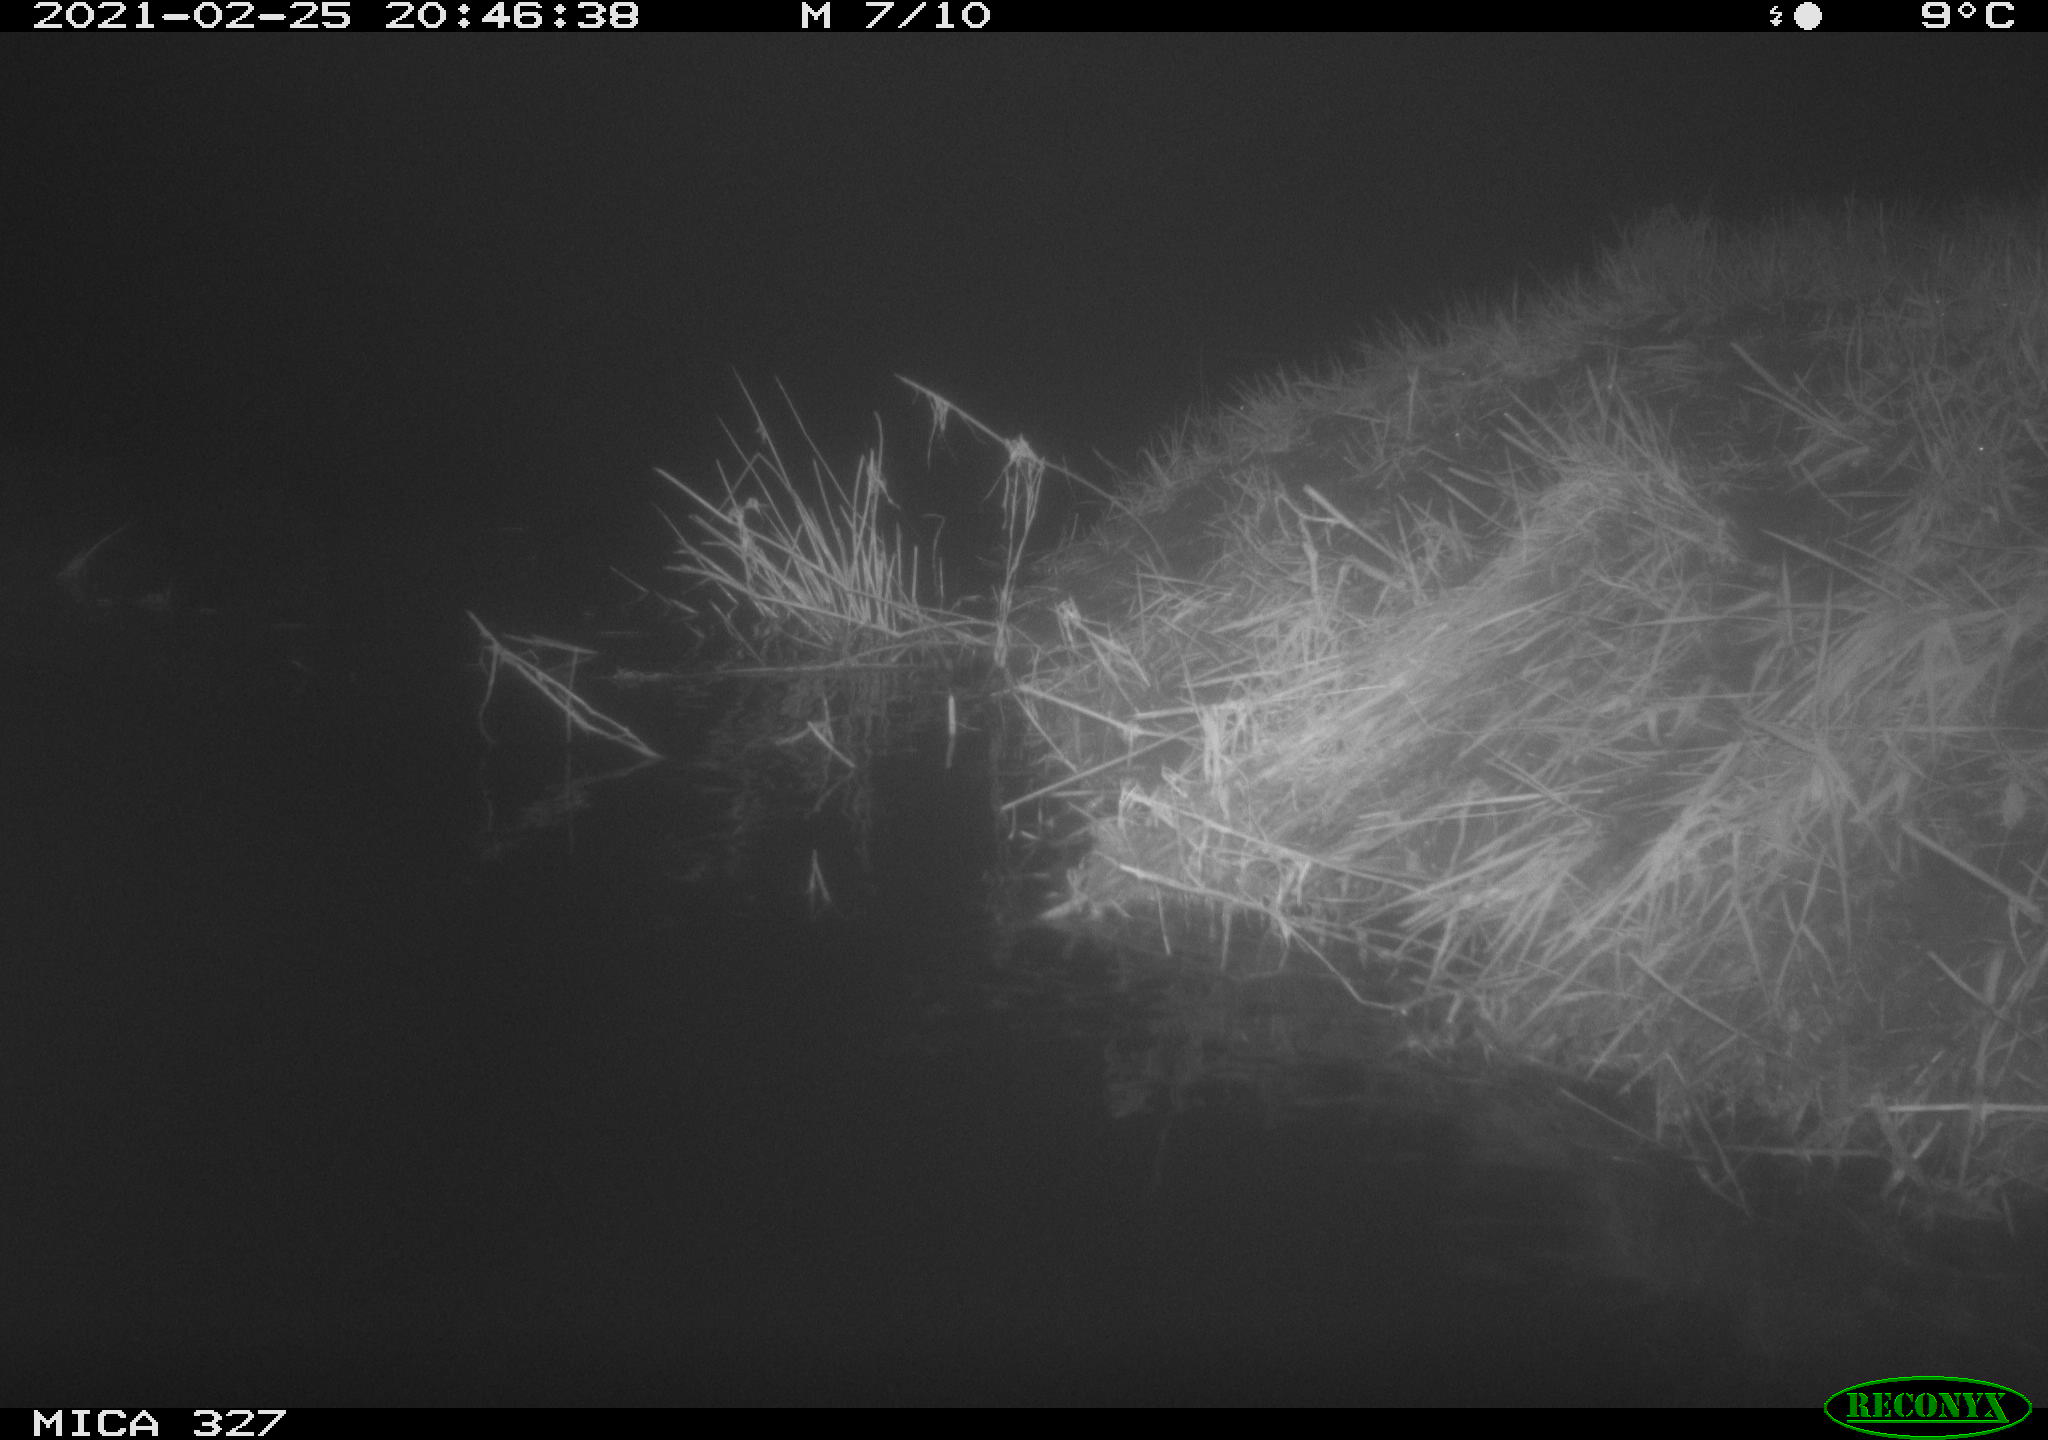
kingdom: Animalia
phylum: Chordata
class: Mammalia
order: Rodentia
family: Cricetidae
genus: Ondatra
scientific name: Ondatra zibethicus
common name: Muskrat
